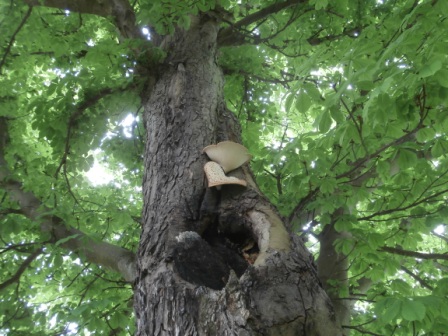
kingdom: Fungi
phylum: Basidiomycota
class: Agaricomycetes
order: Polyporales
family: Polyporaceae
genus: Cerioporus
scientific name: Cerioporus squamosus
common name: skællet stilkporesvamp
